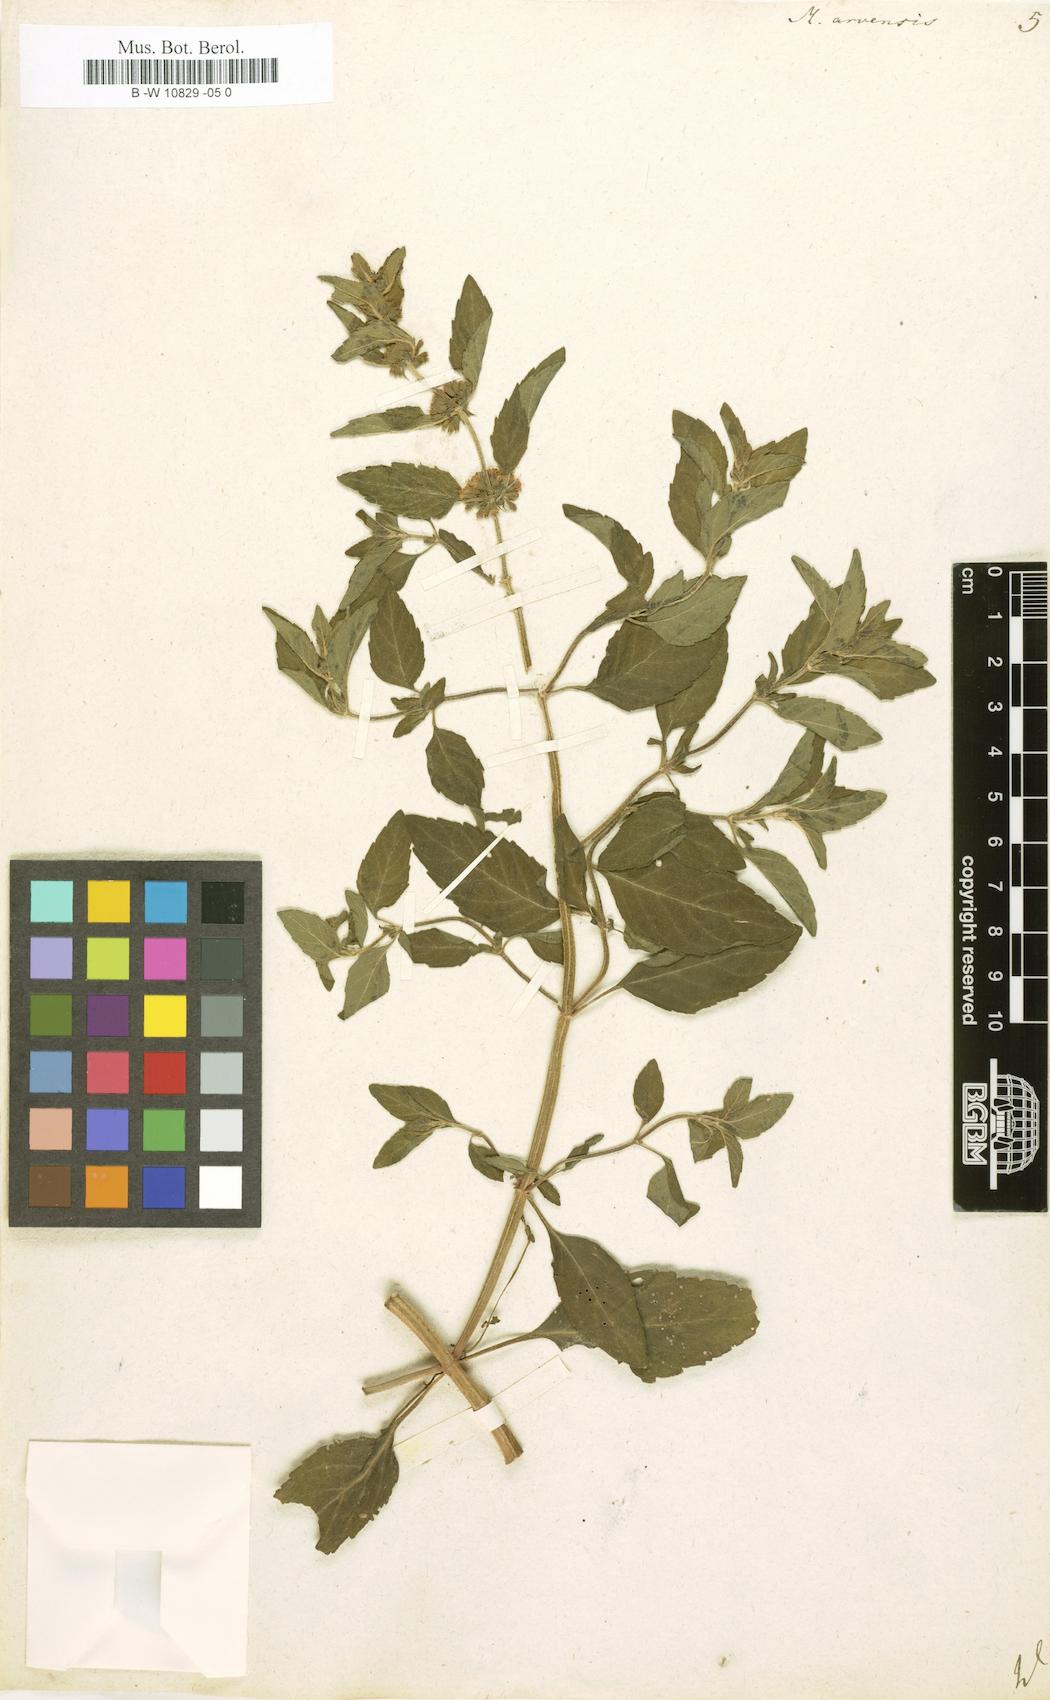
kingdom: Plantae
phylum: Tracheophyta
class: Magnoliopsida
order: Lamiales
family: Lamiaceae
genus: Mentha
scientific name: Mentha arvensis
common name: Corn mint
